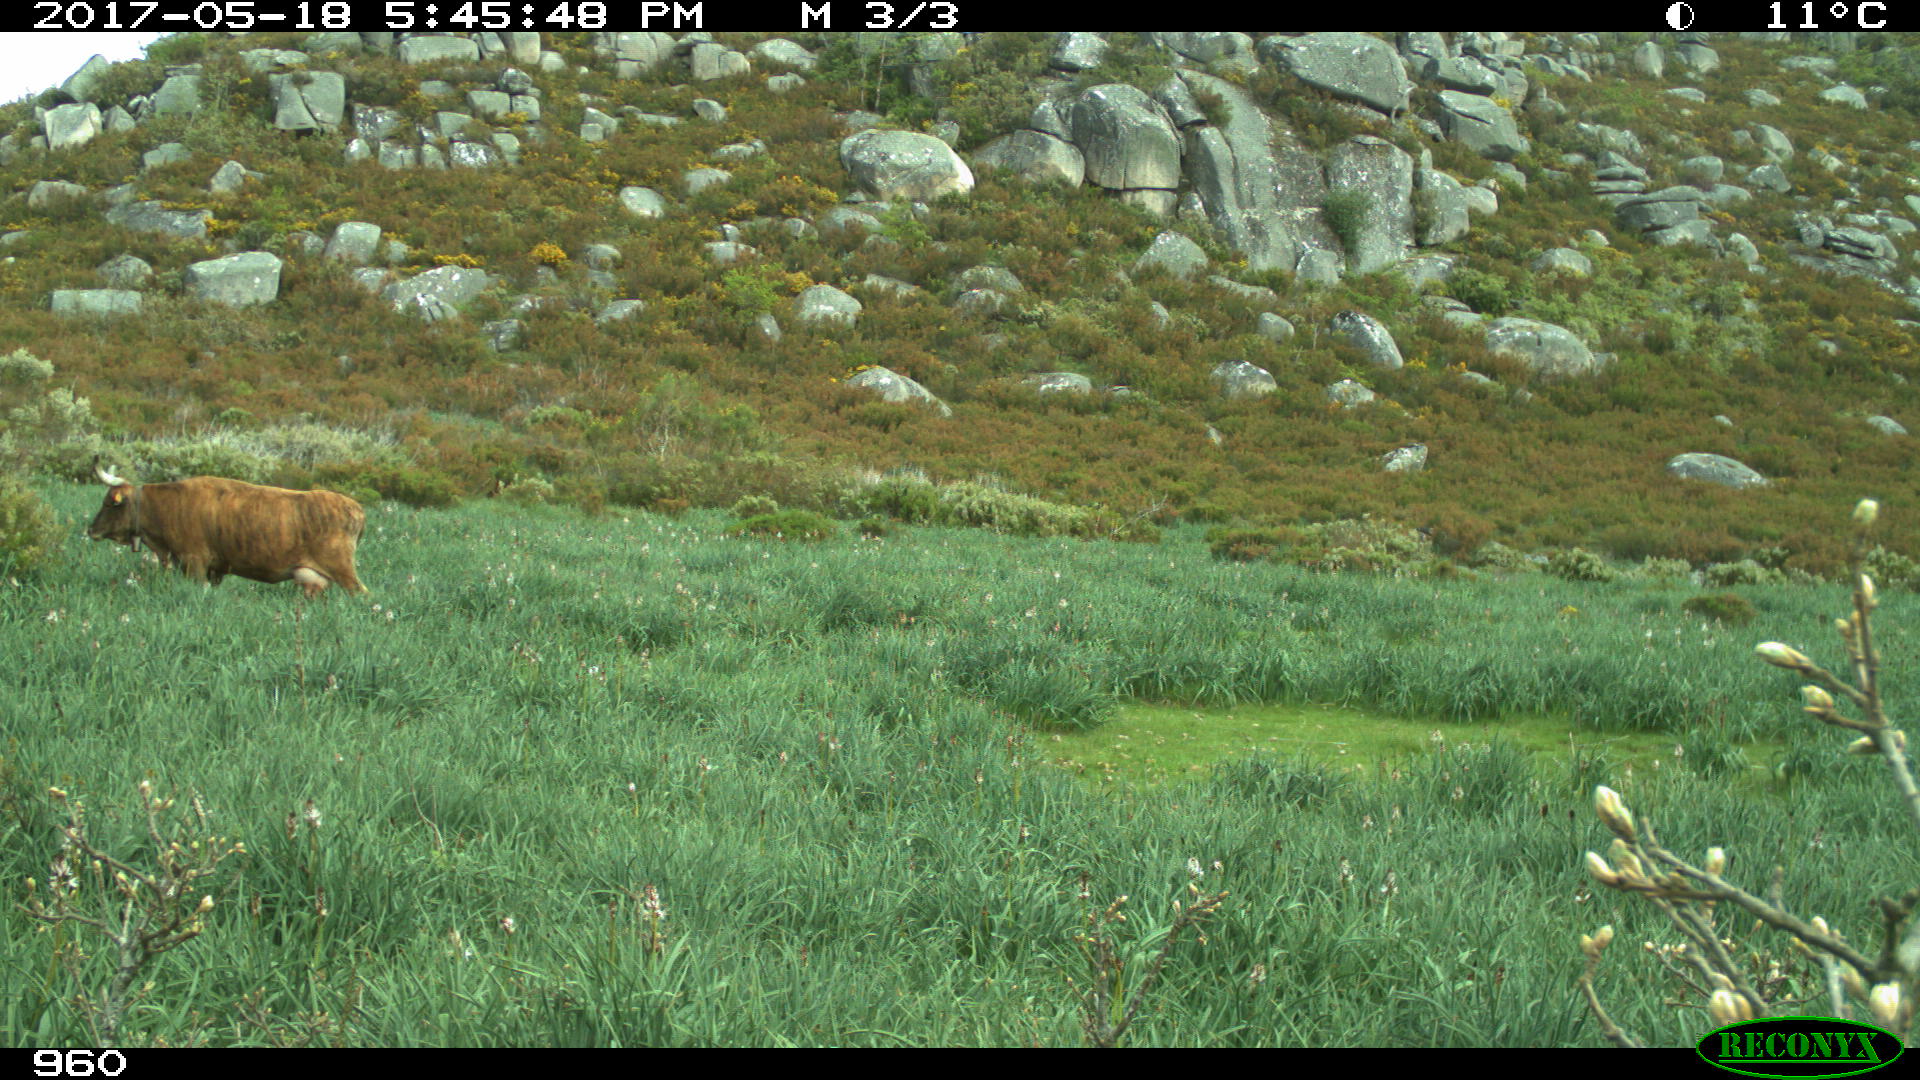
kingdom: Animalia
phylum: Chordata
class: Mammalia
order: Artiodactyla
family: Bovidae
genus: Bos
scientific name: Bos taurus
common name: Domesticated cattle
